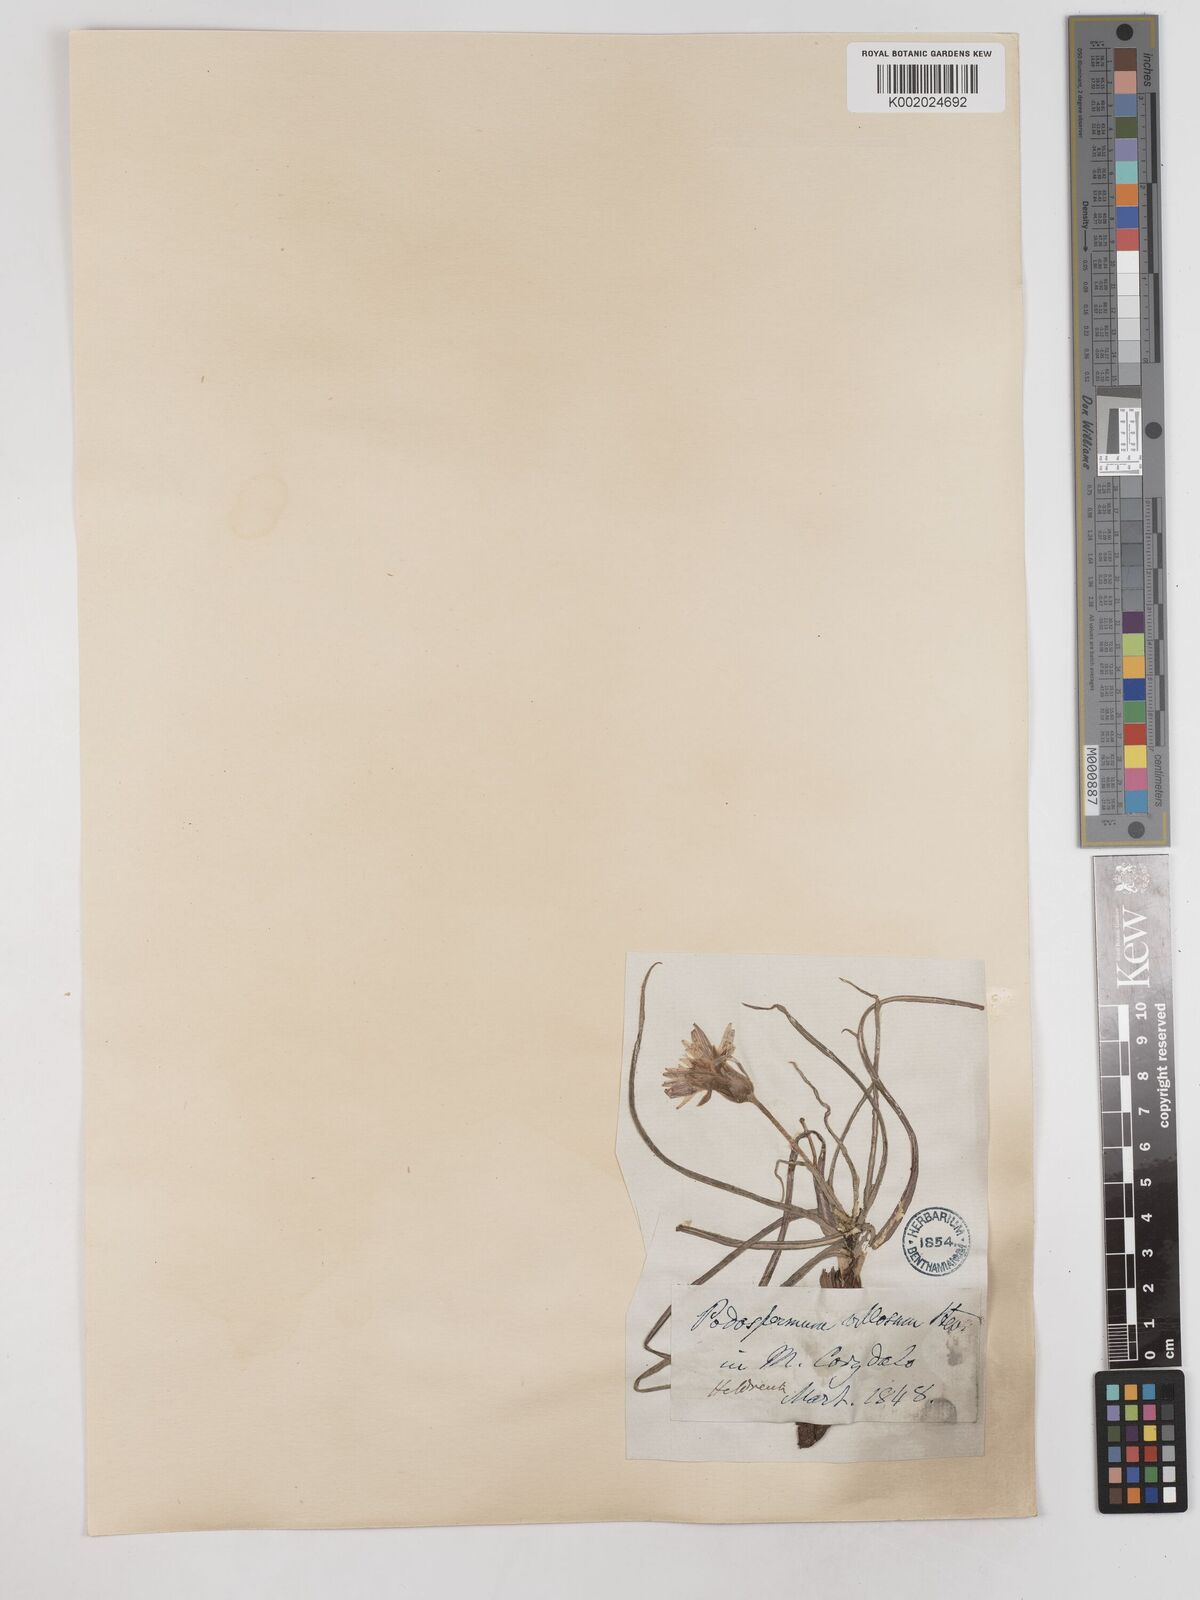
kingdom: Plantae
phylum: Tracheophyta
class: Magnoliopsida
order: Asterales
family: Asteraceae
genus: Candollea
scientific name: Candollea mollis
